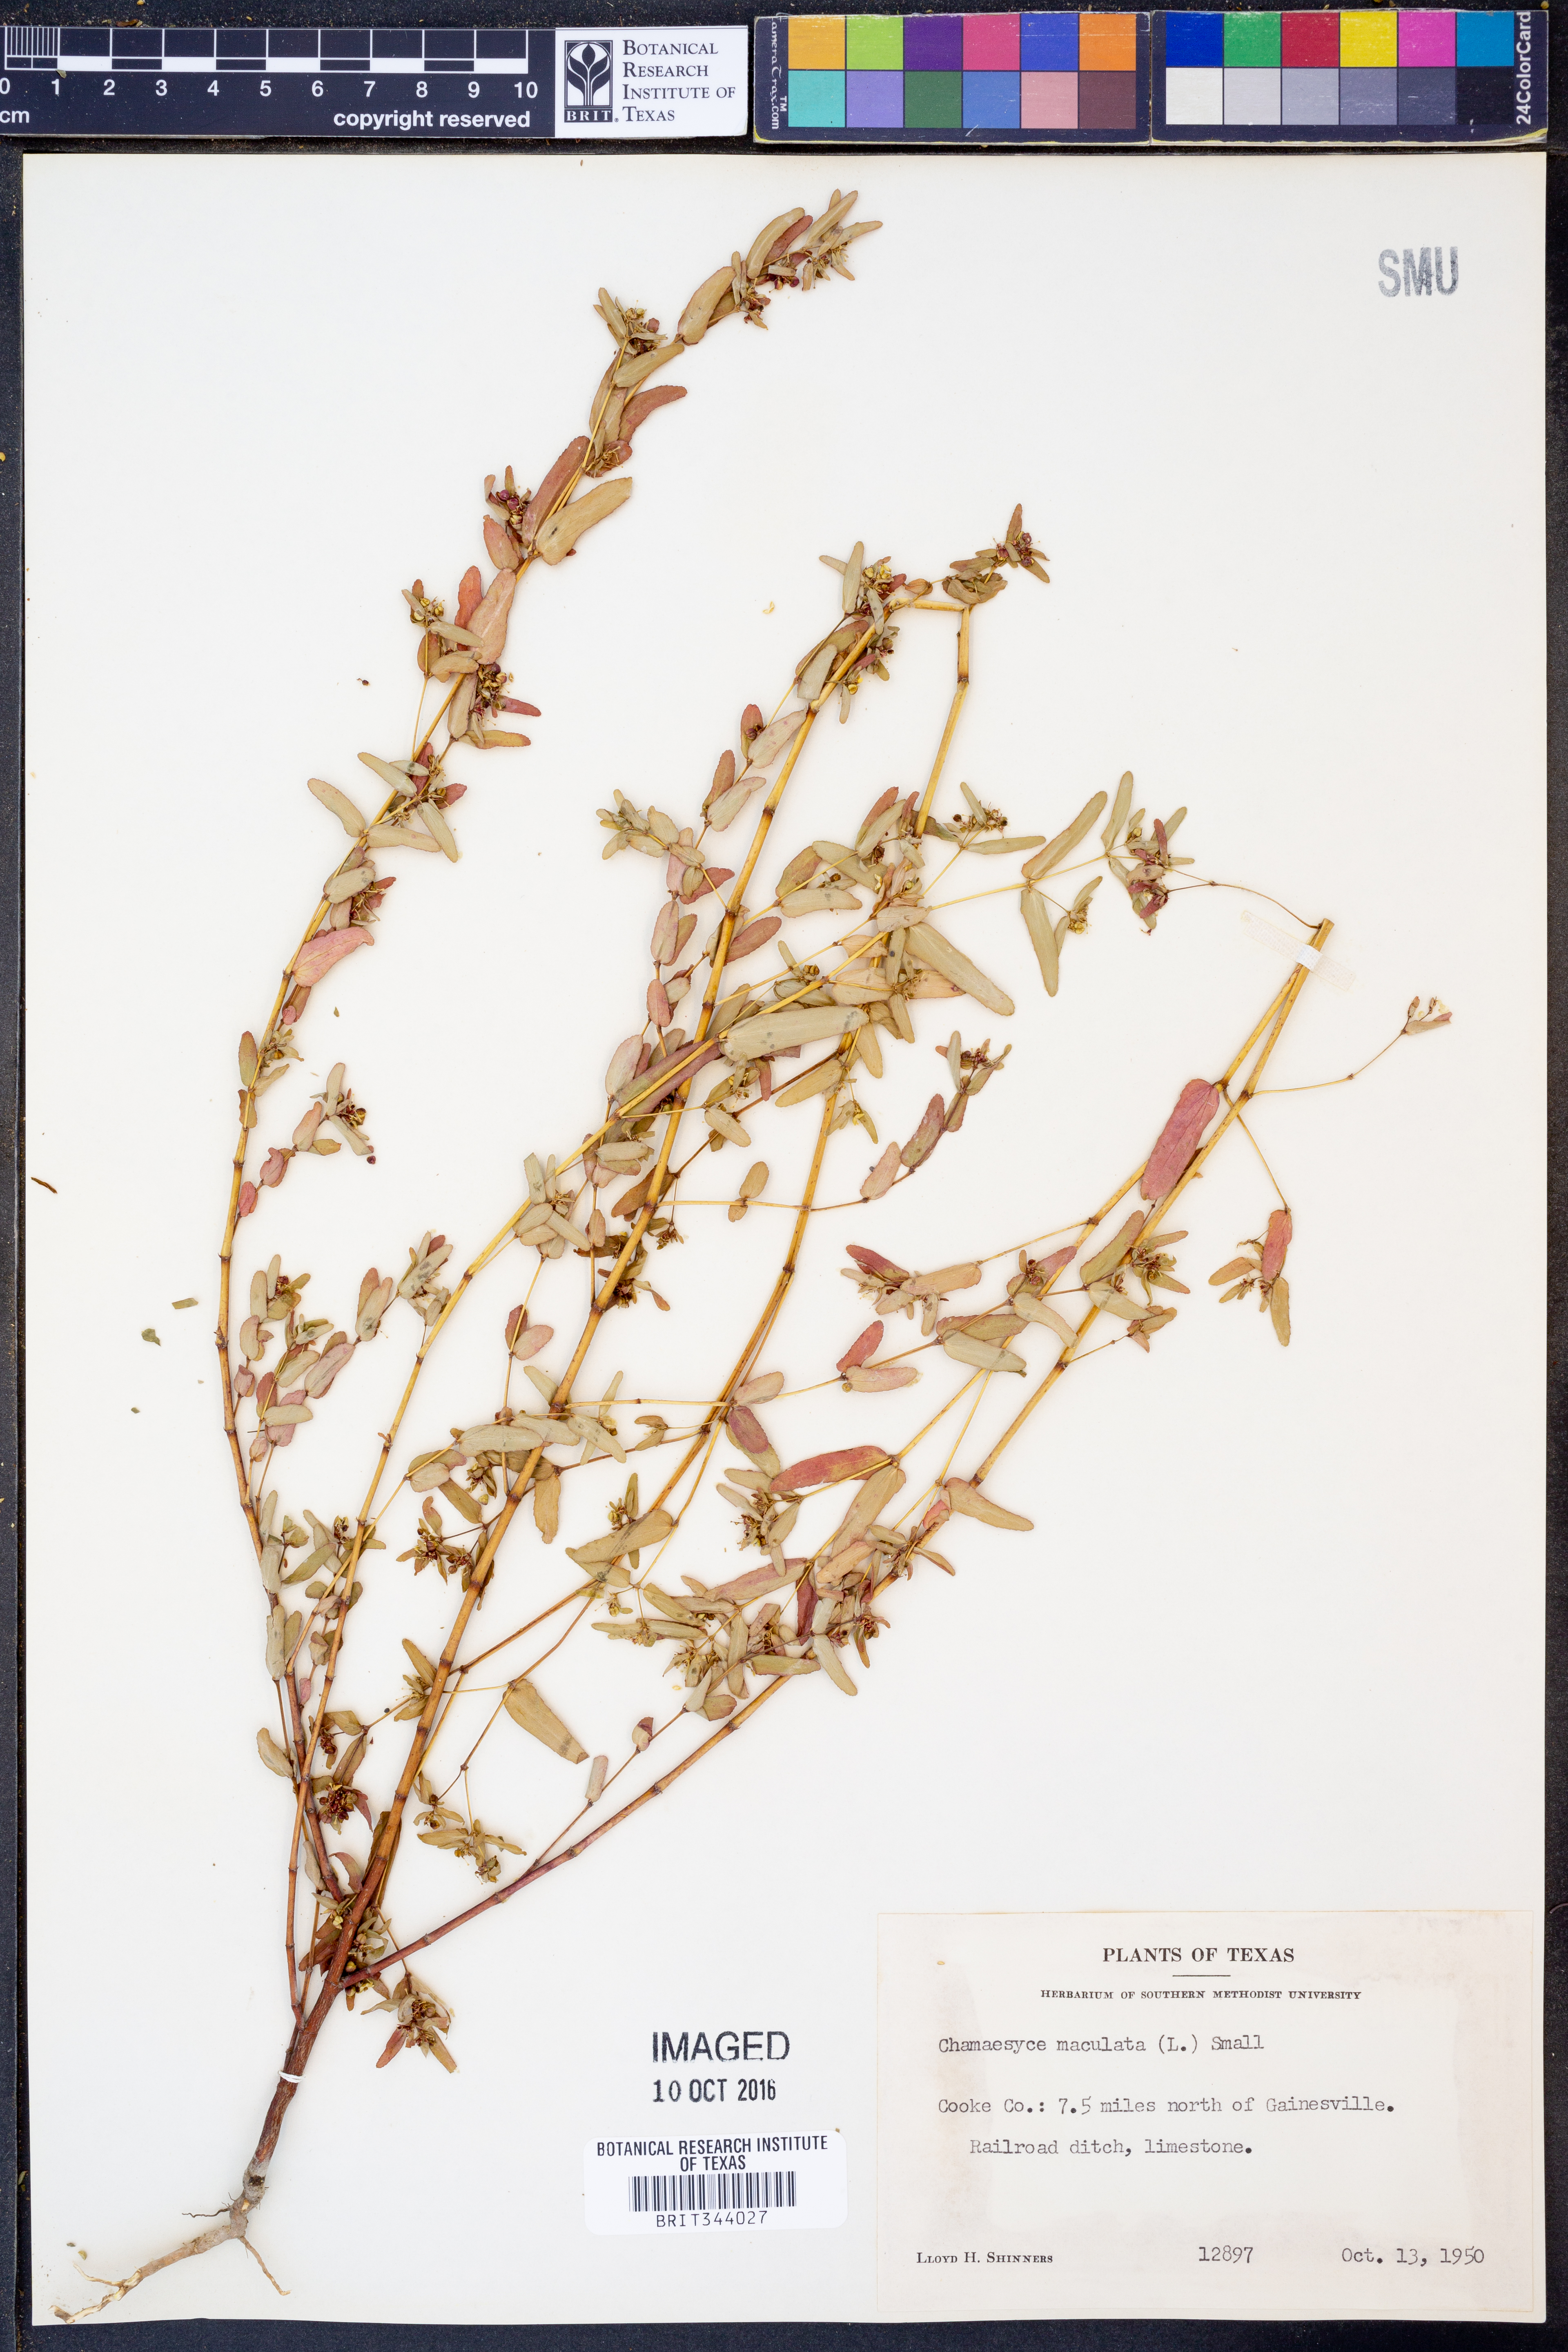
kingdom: Plantae
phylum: Tracheophyta
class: Magnoliopsida
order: Malpighiales
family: Euphorbiaceae
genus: Euphorbia
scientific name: Euphorbia maculata
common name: Spotted spurge
